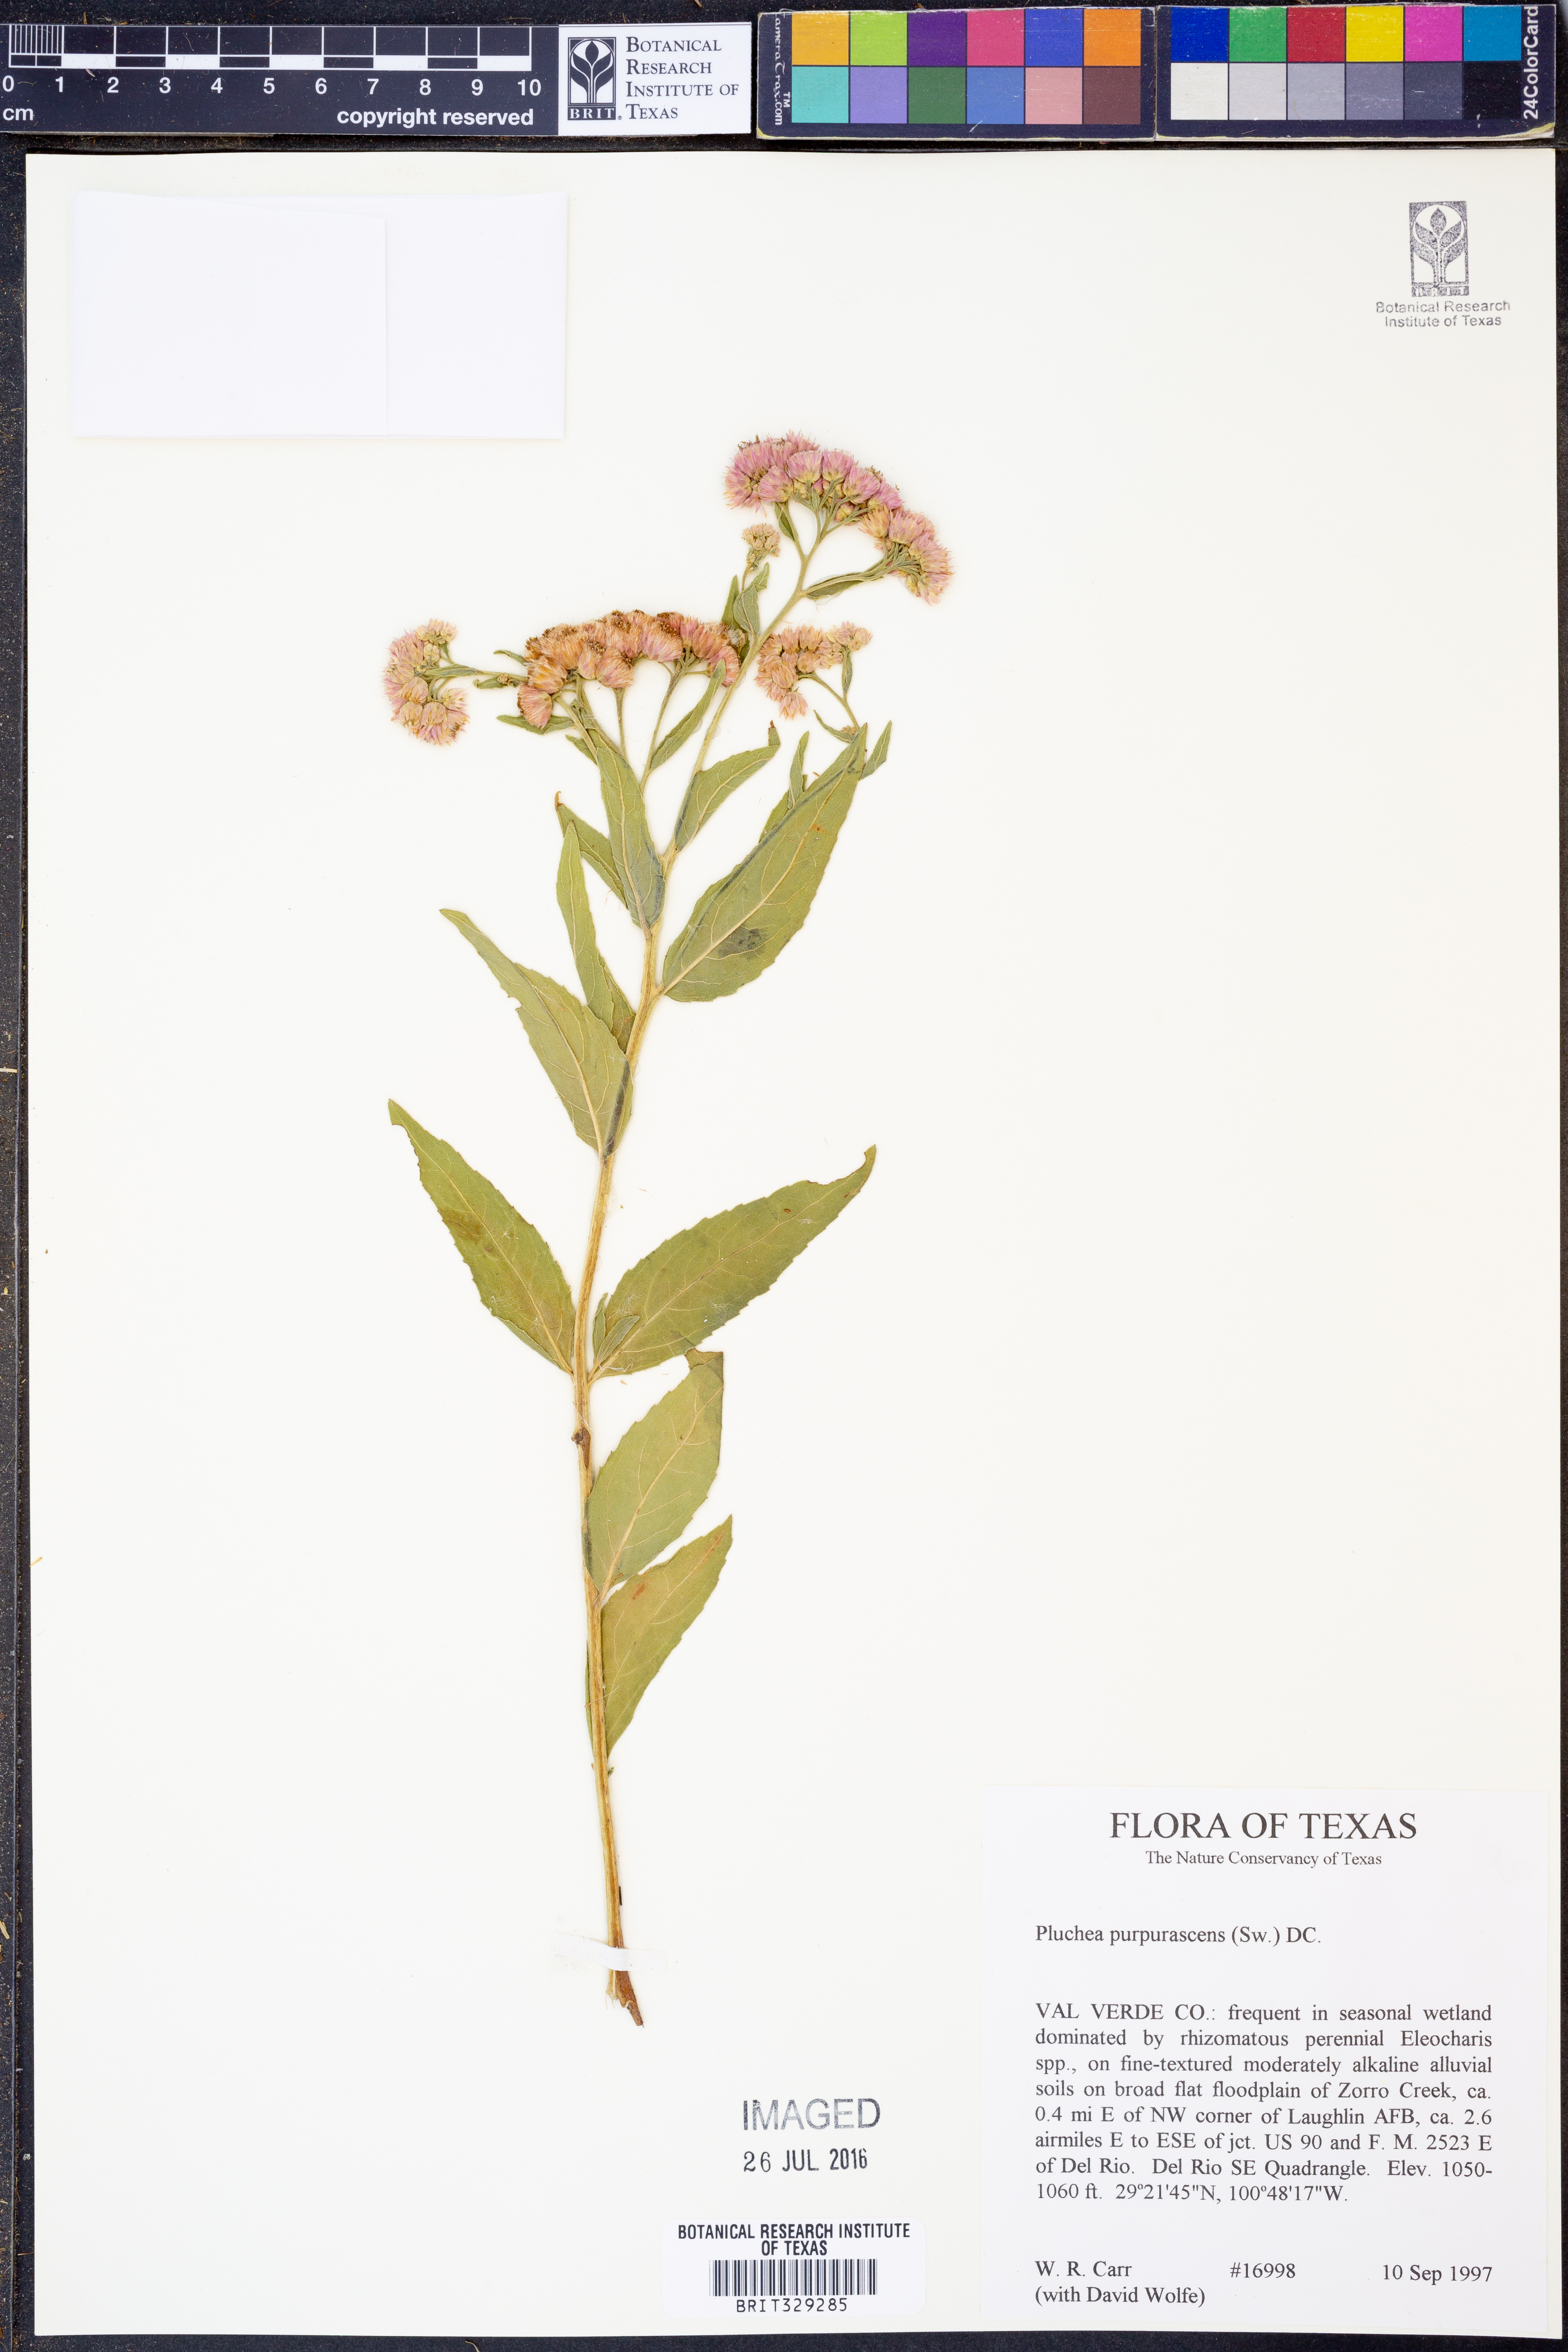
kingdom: Plantae
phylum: Tracheophyta
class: Magnoliopsida
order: Asterales
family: Asteraceae
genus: Pluchea
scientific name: Pluchea odorata
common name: Saltmarsh fleabane
